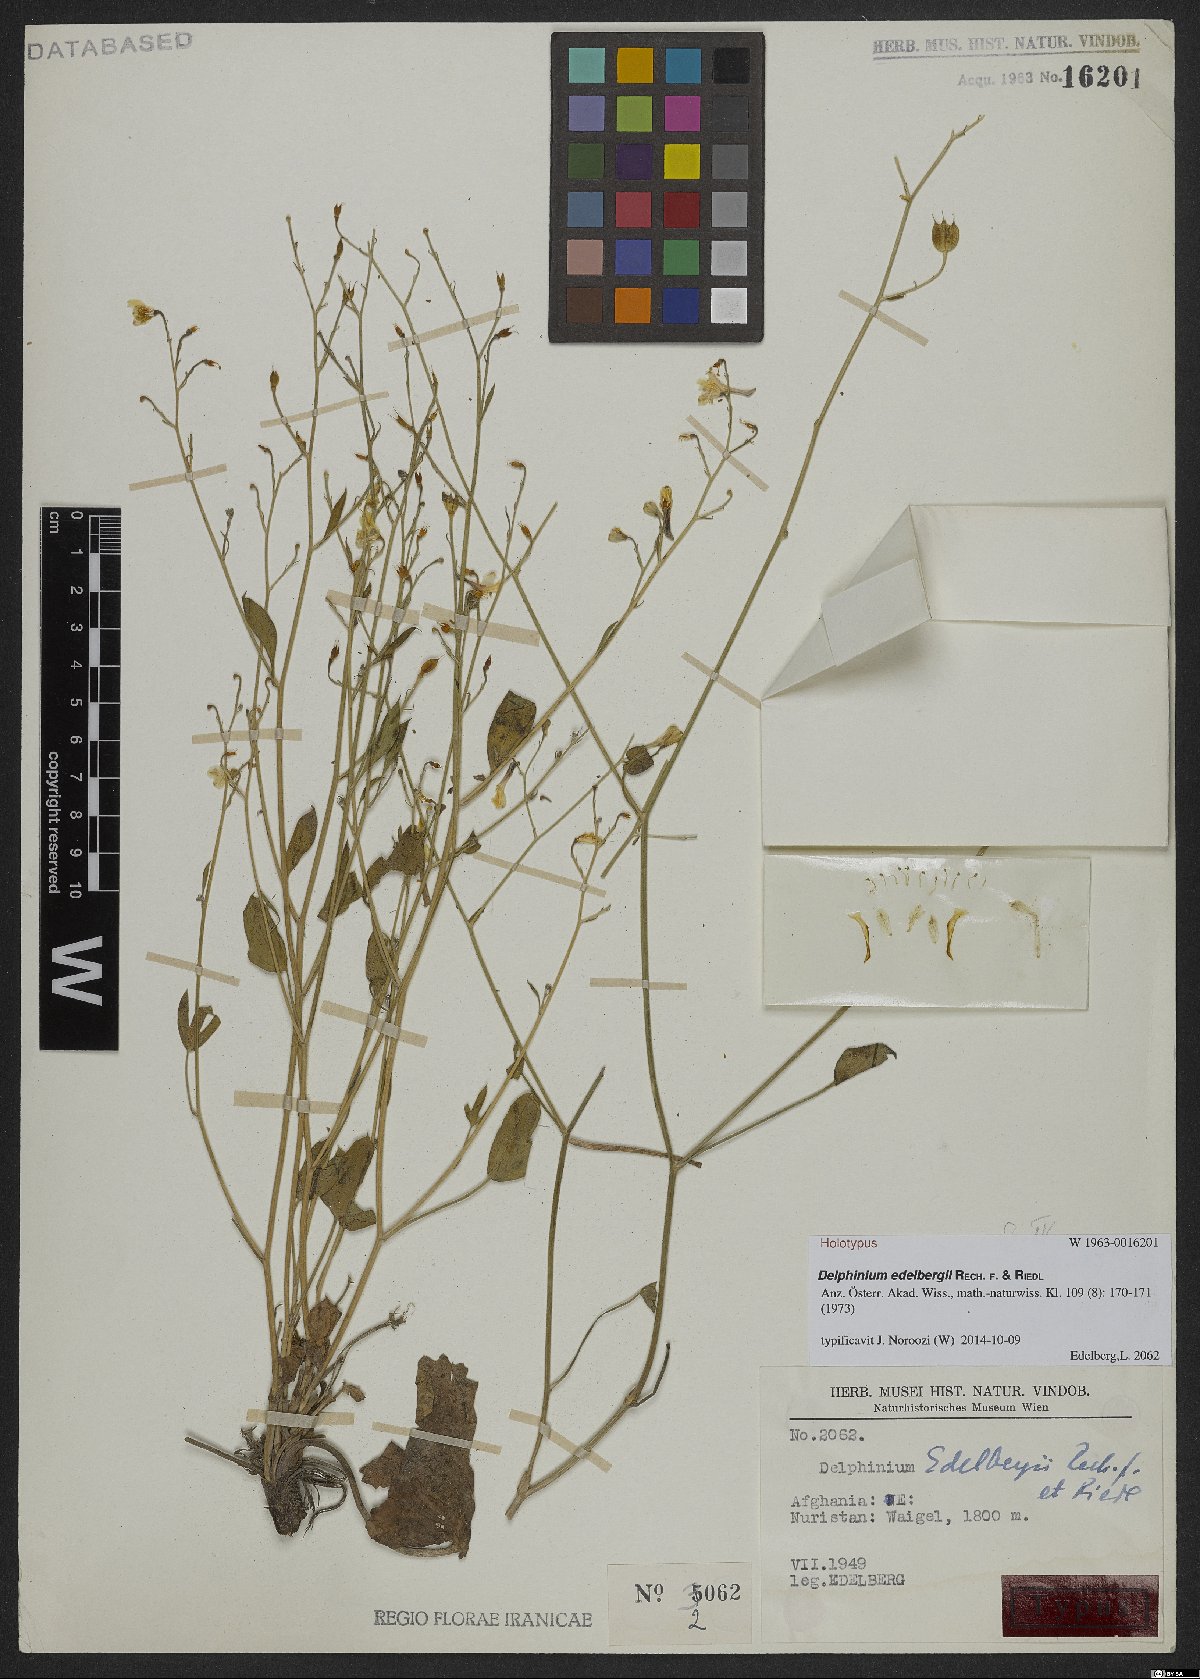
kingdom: Plantae
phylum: Tracheophyta
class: Magnoliopsida
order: Ranunculales
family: Ranunculaceae
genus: Delphinium
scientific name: Delphinium edelbergii
